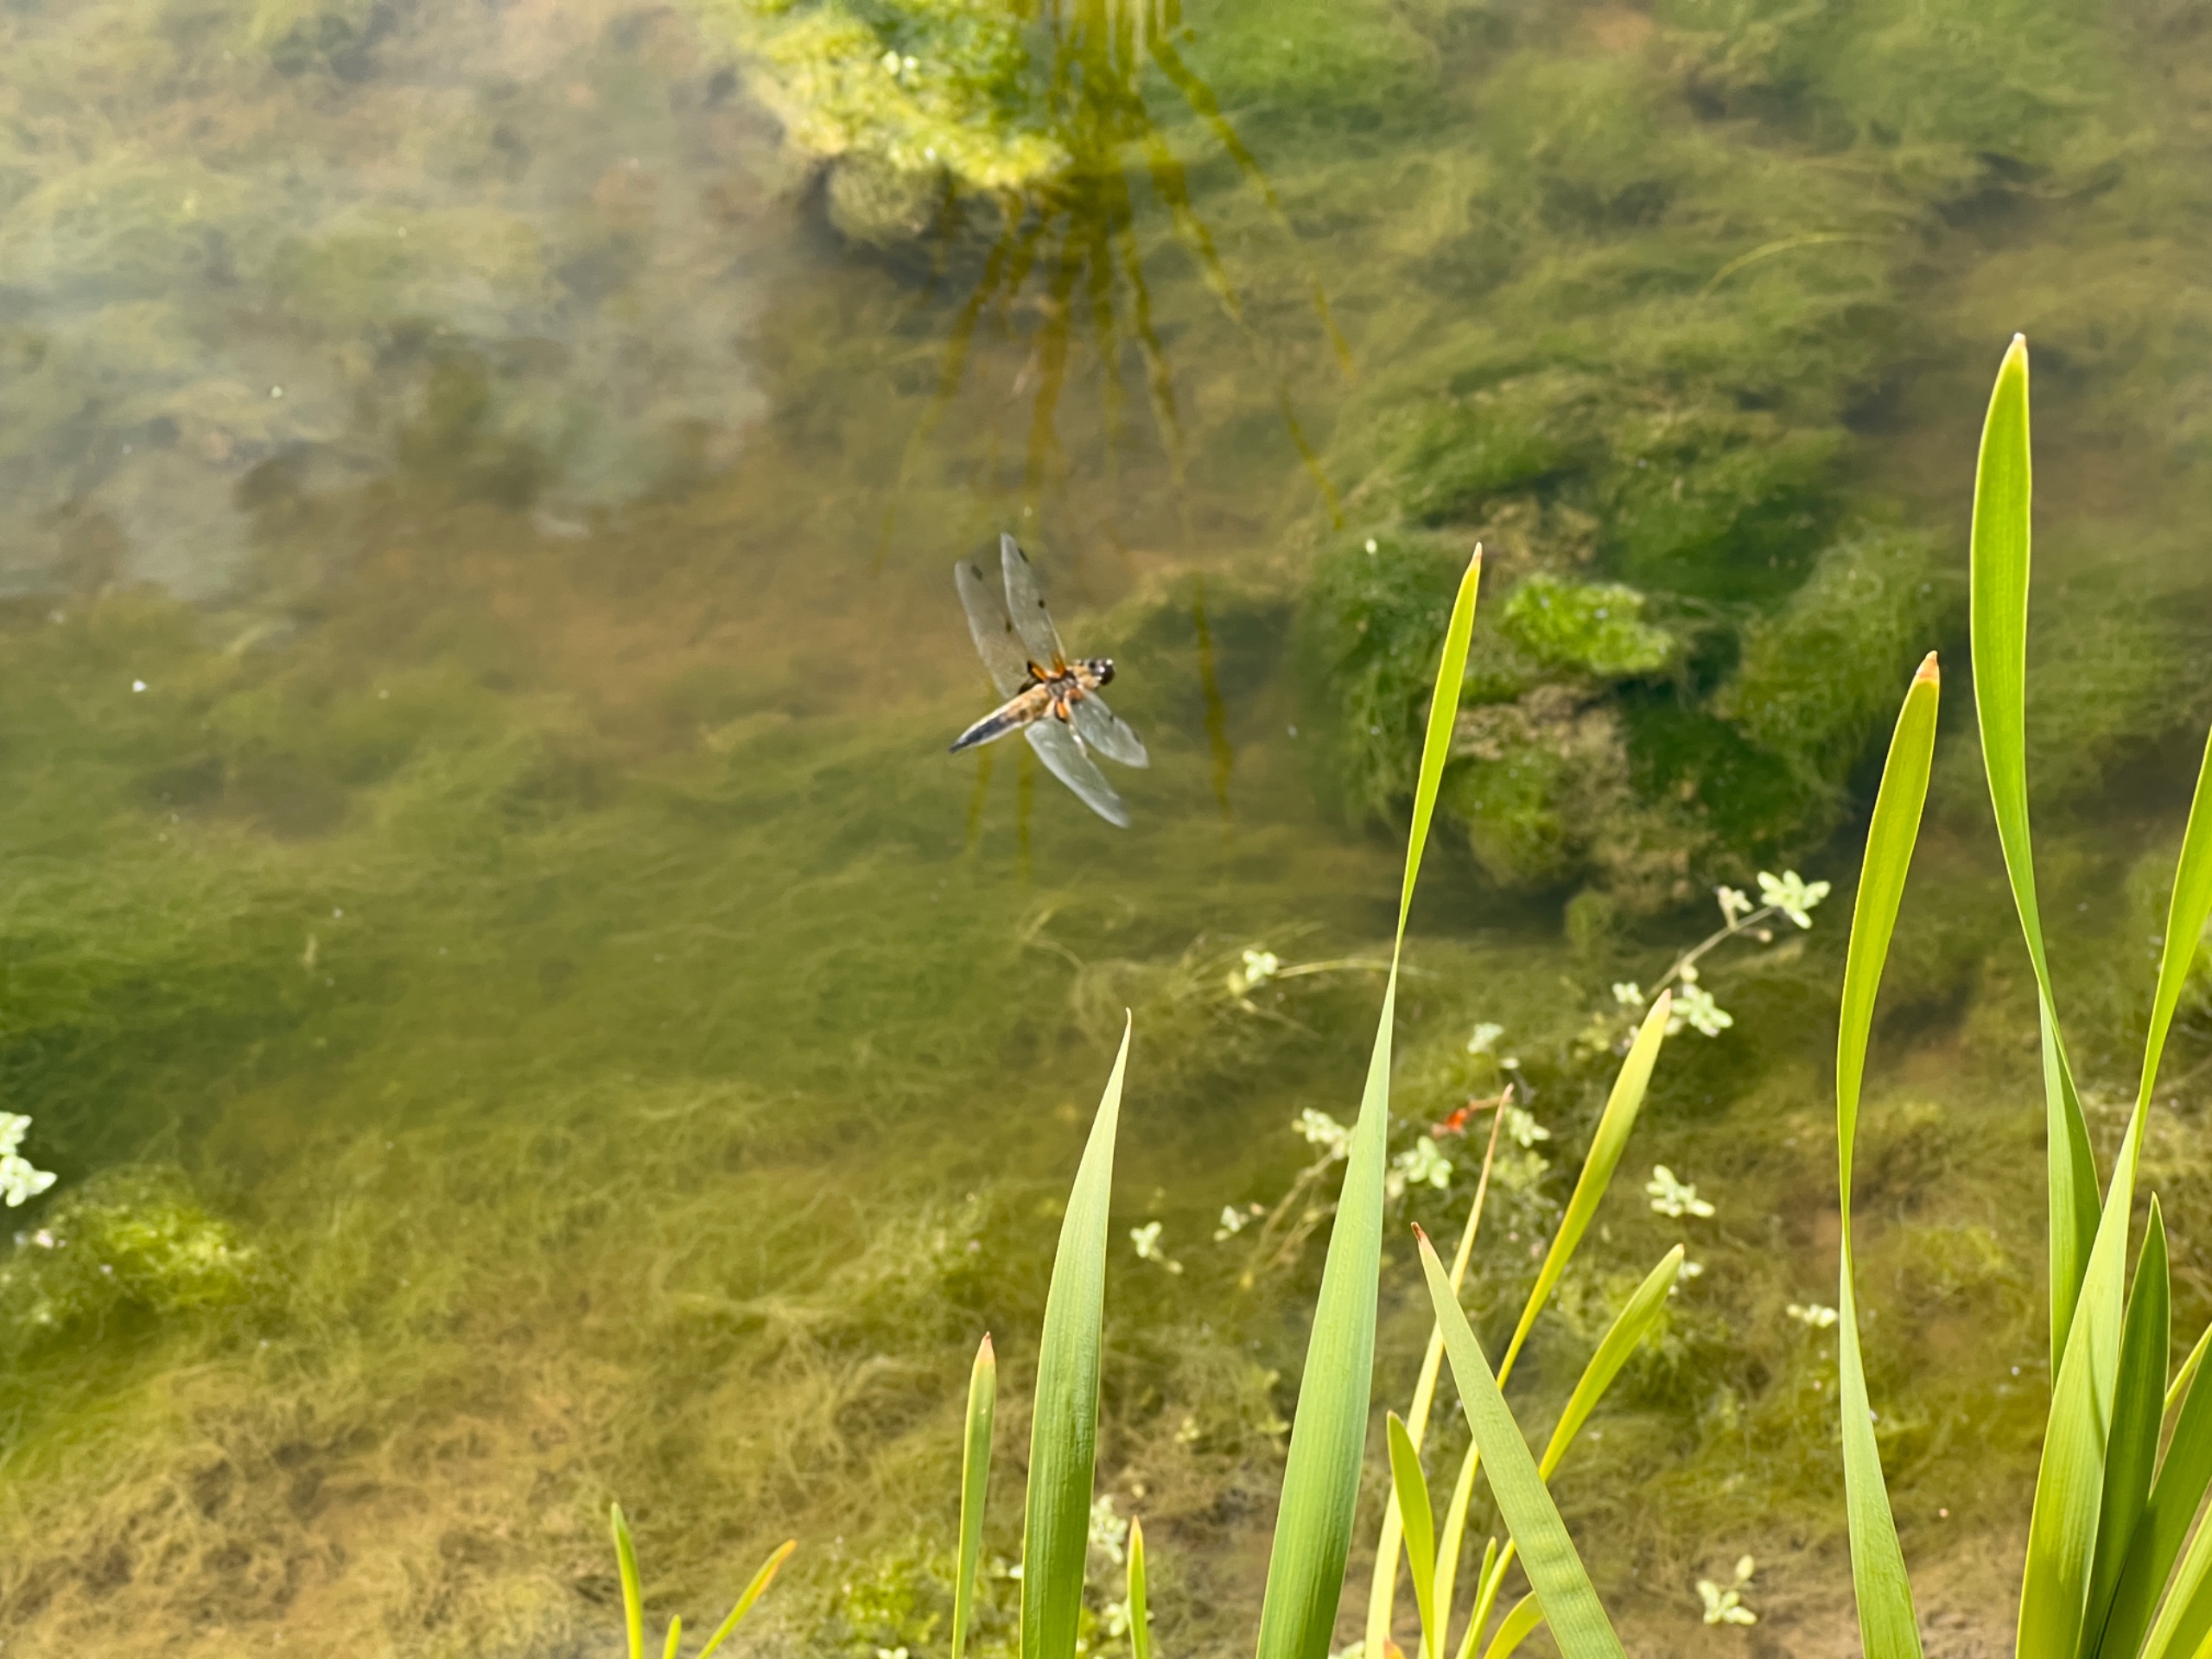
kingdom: Animalia
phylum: Arthropoda
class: Insecta
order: Odonata
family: Libellulidae
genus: Libellula
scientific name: Libellula quadrimaculata
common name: Fireplettet libel
